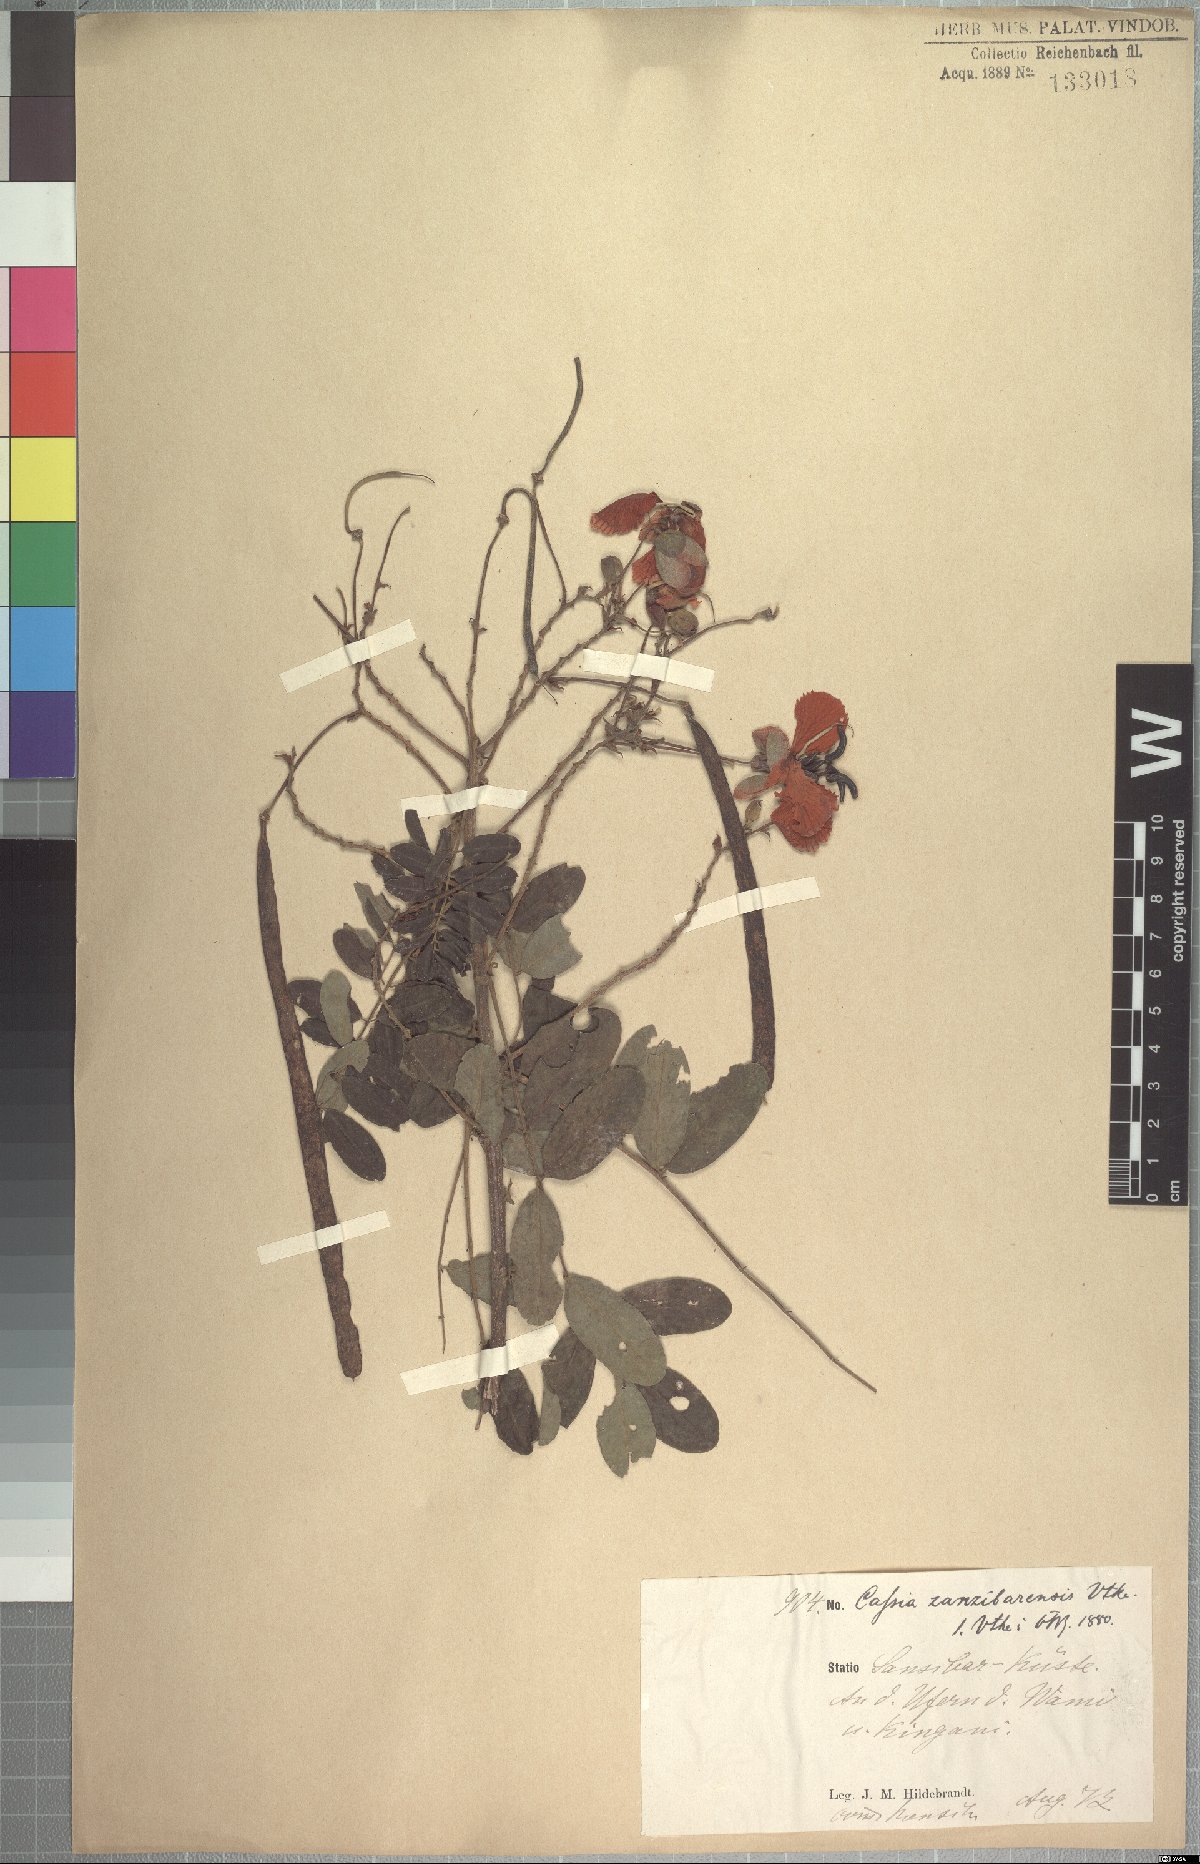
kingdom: Plantae
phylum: Tracheophyta
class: Magnoliopsida
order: Fabales
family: Fabaceae
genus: Senna
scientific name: Senna singueana
